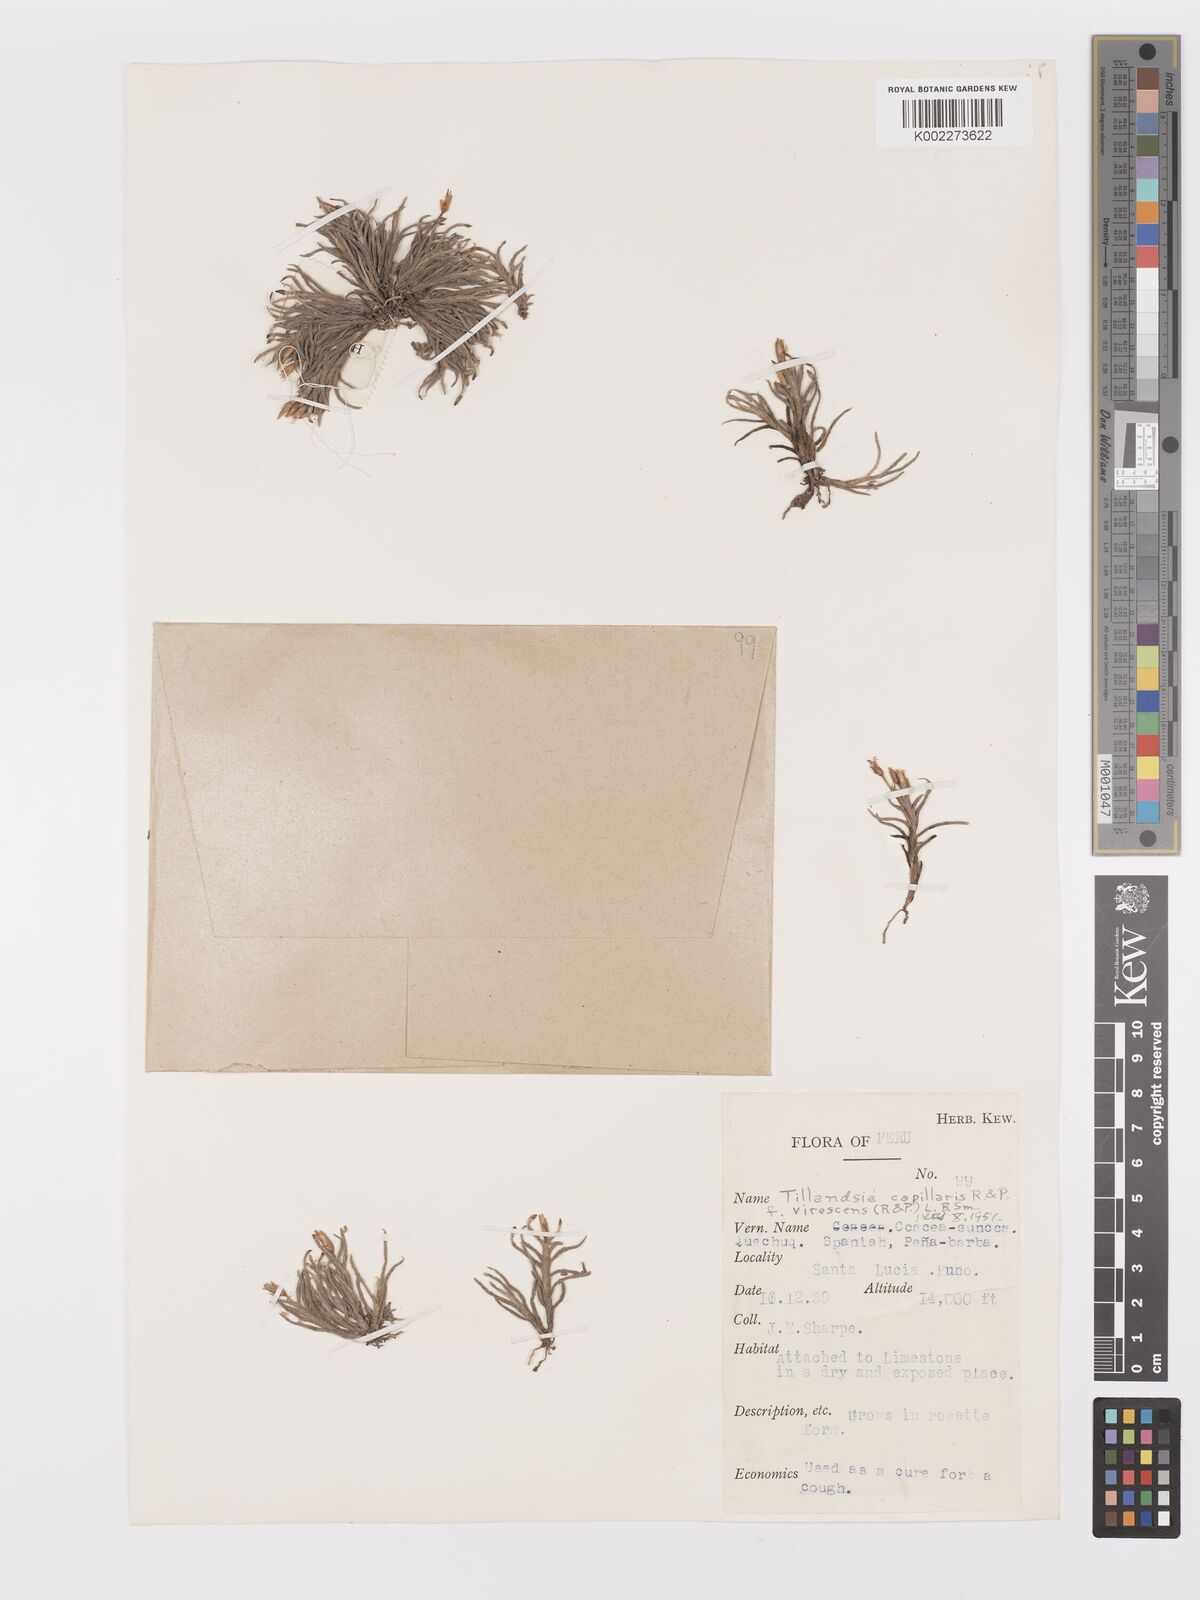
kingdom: Plantae
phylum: Tracheophyta
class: Liliopsida
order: Poales
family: Bromeliaceae
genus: Tillandsia
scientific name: Tillandsia virescens
